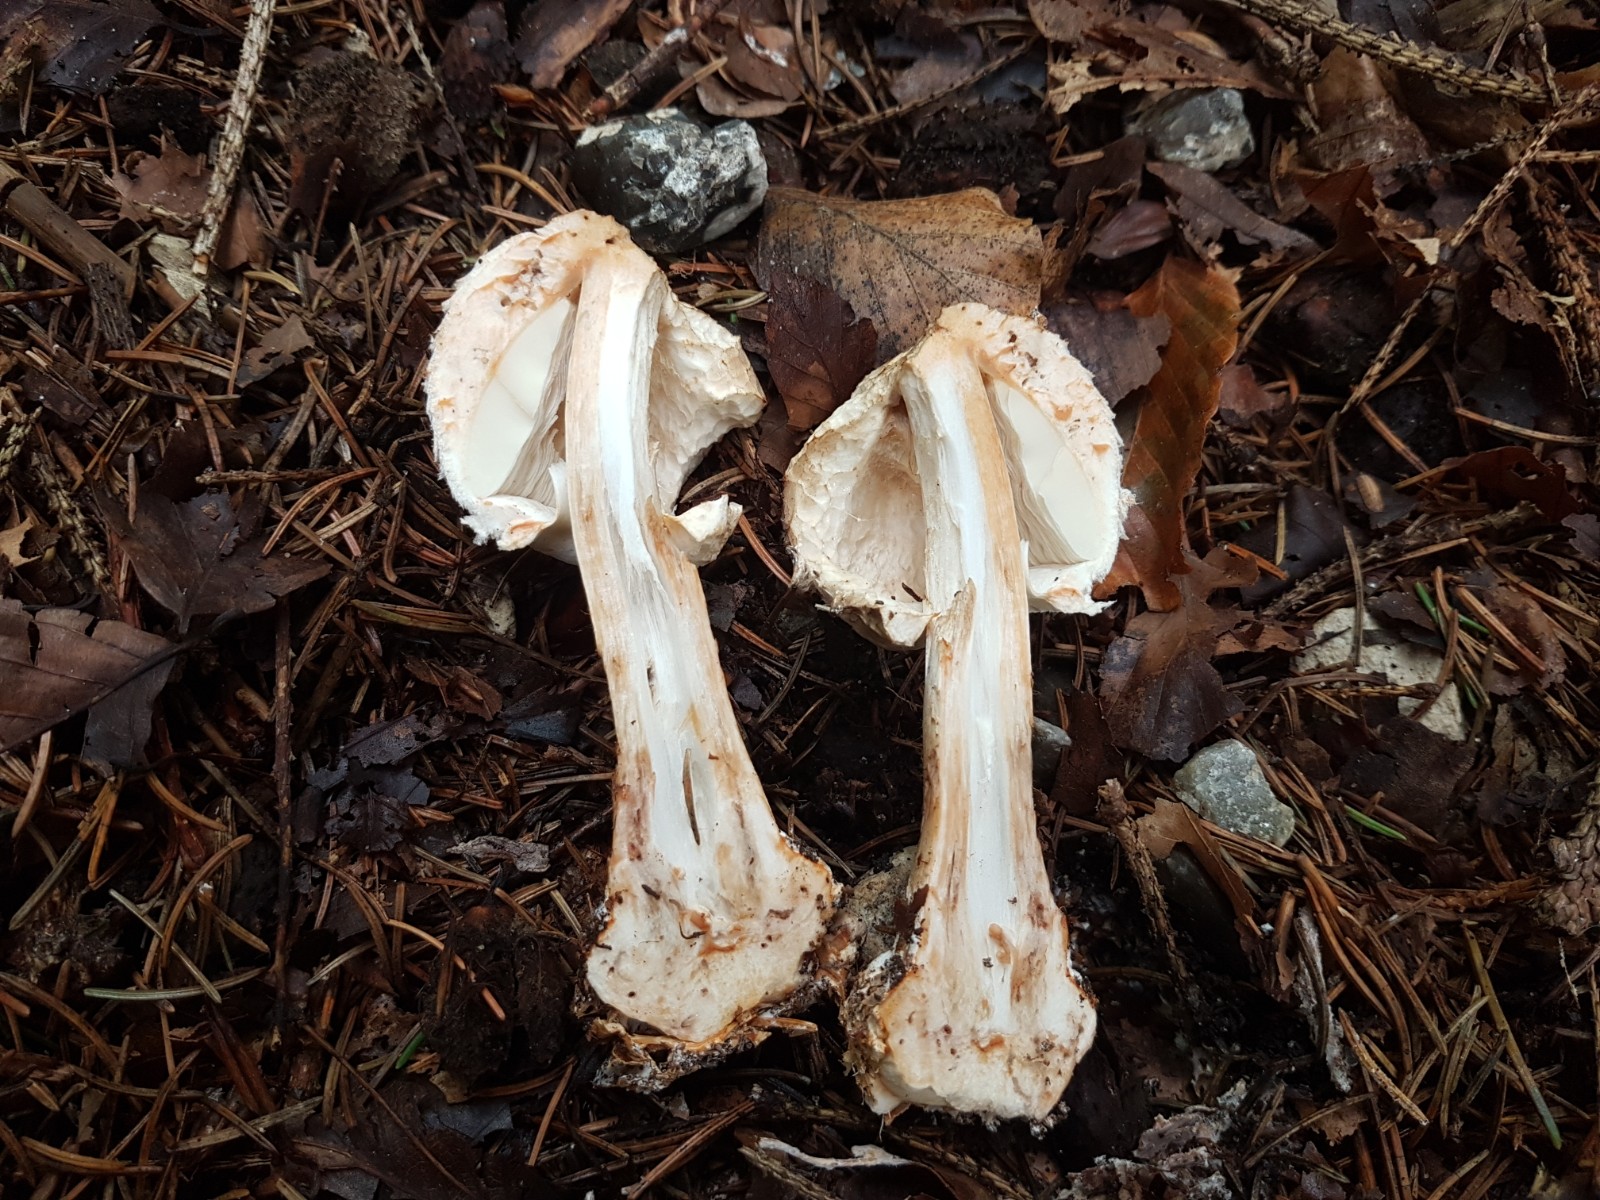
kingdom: Fungi
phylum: Basidiomycota
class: Agaricomycetes
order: Agaricales
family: Agaricaceae
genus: Chlorophyllum
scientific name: Chlorophyllum olivieri
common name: almindelig rabarberhat
